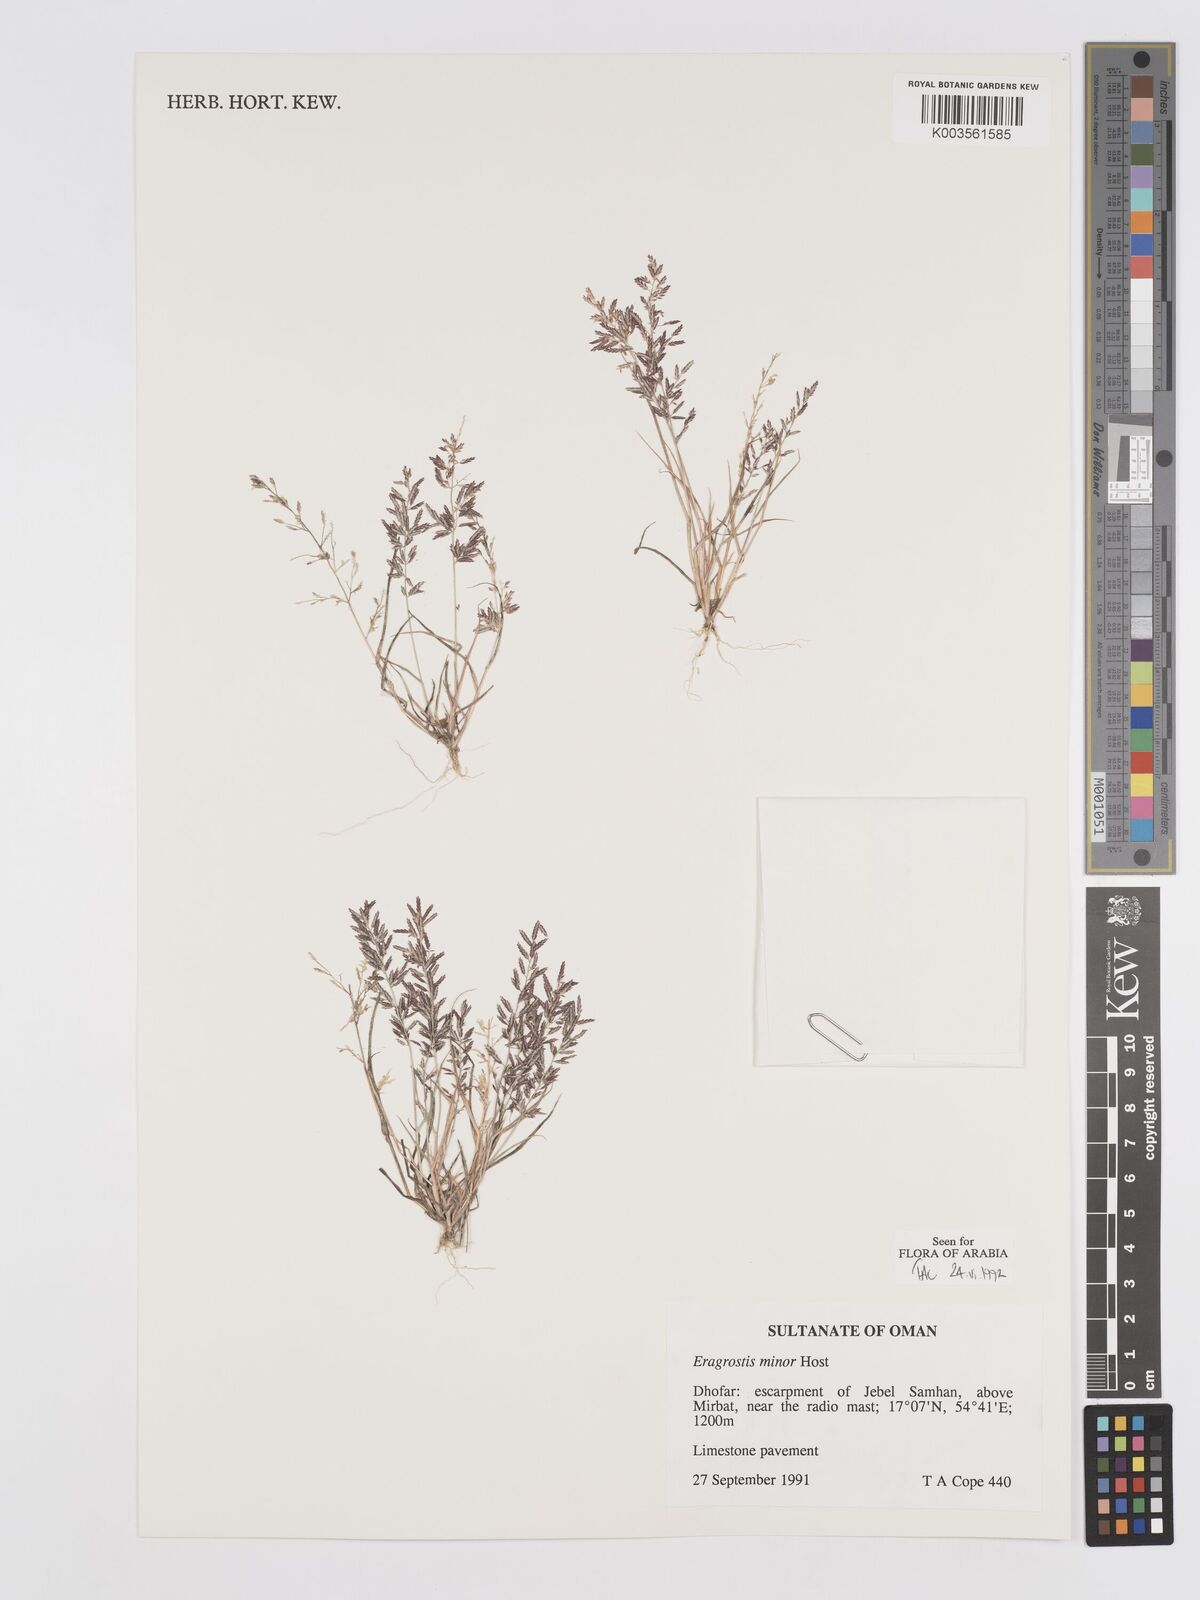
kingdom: Plantae
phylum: Tracheophyta
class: Liliopsida
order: Poales
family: Poaceae
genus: Eragrostis
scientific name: Eragrostis minor
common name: Small love-grass
